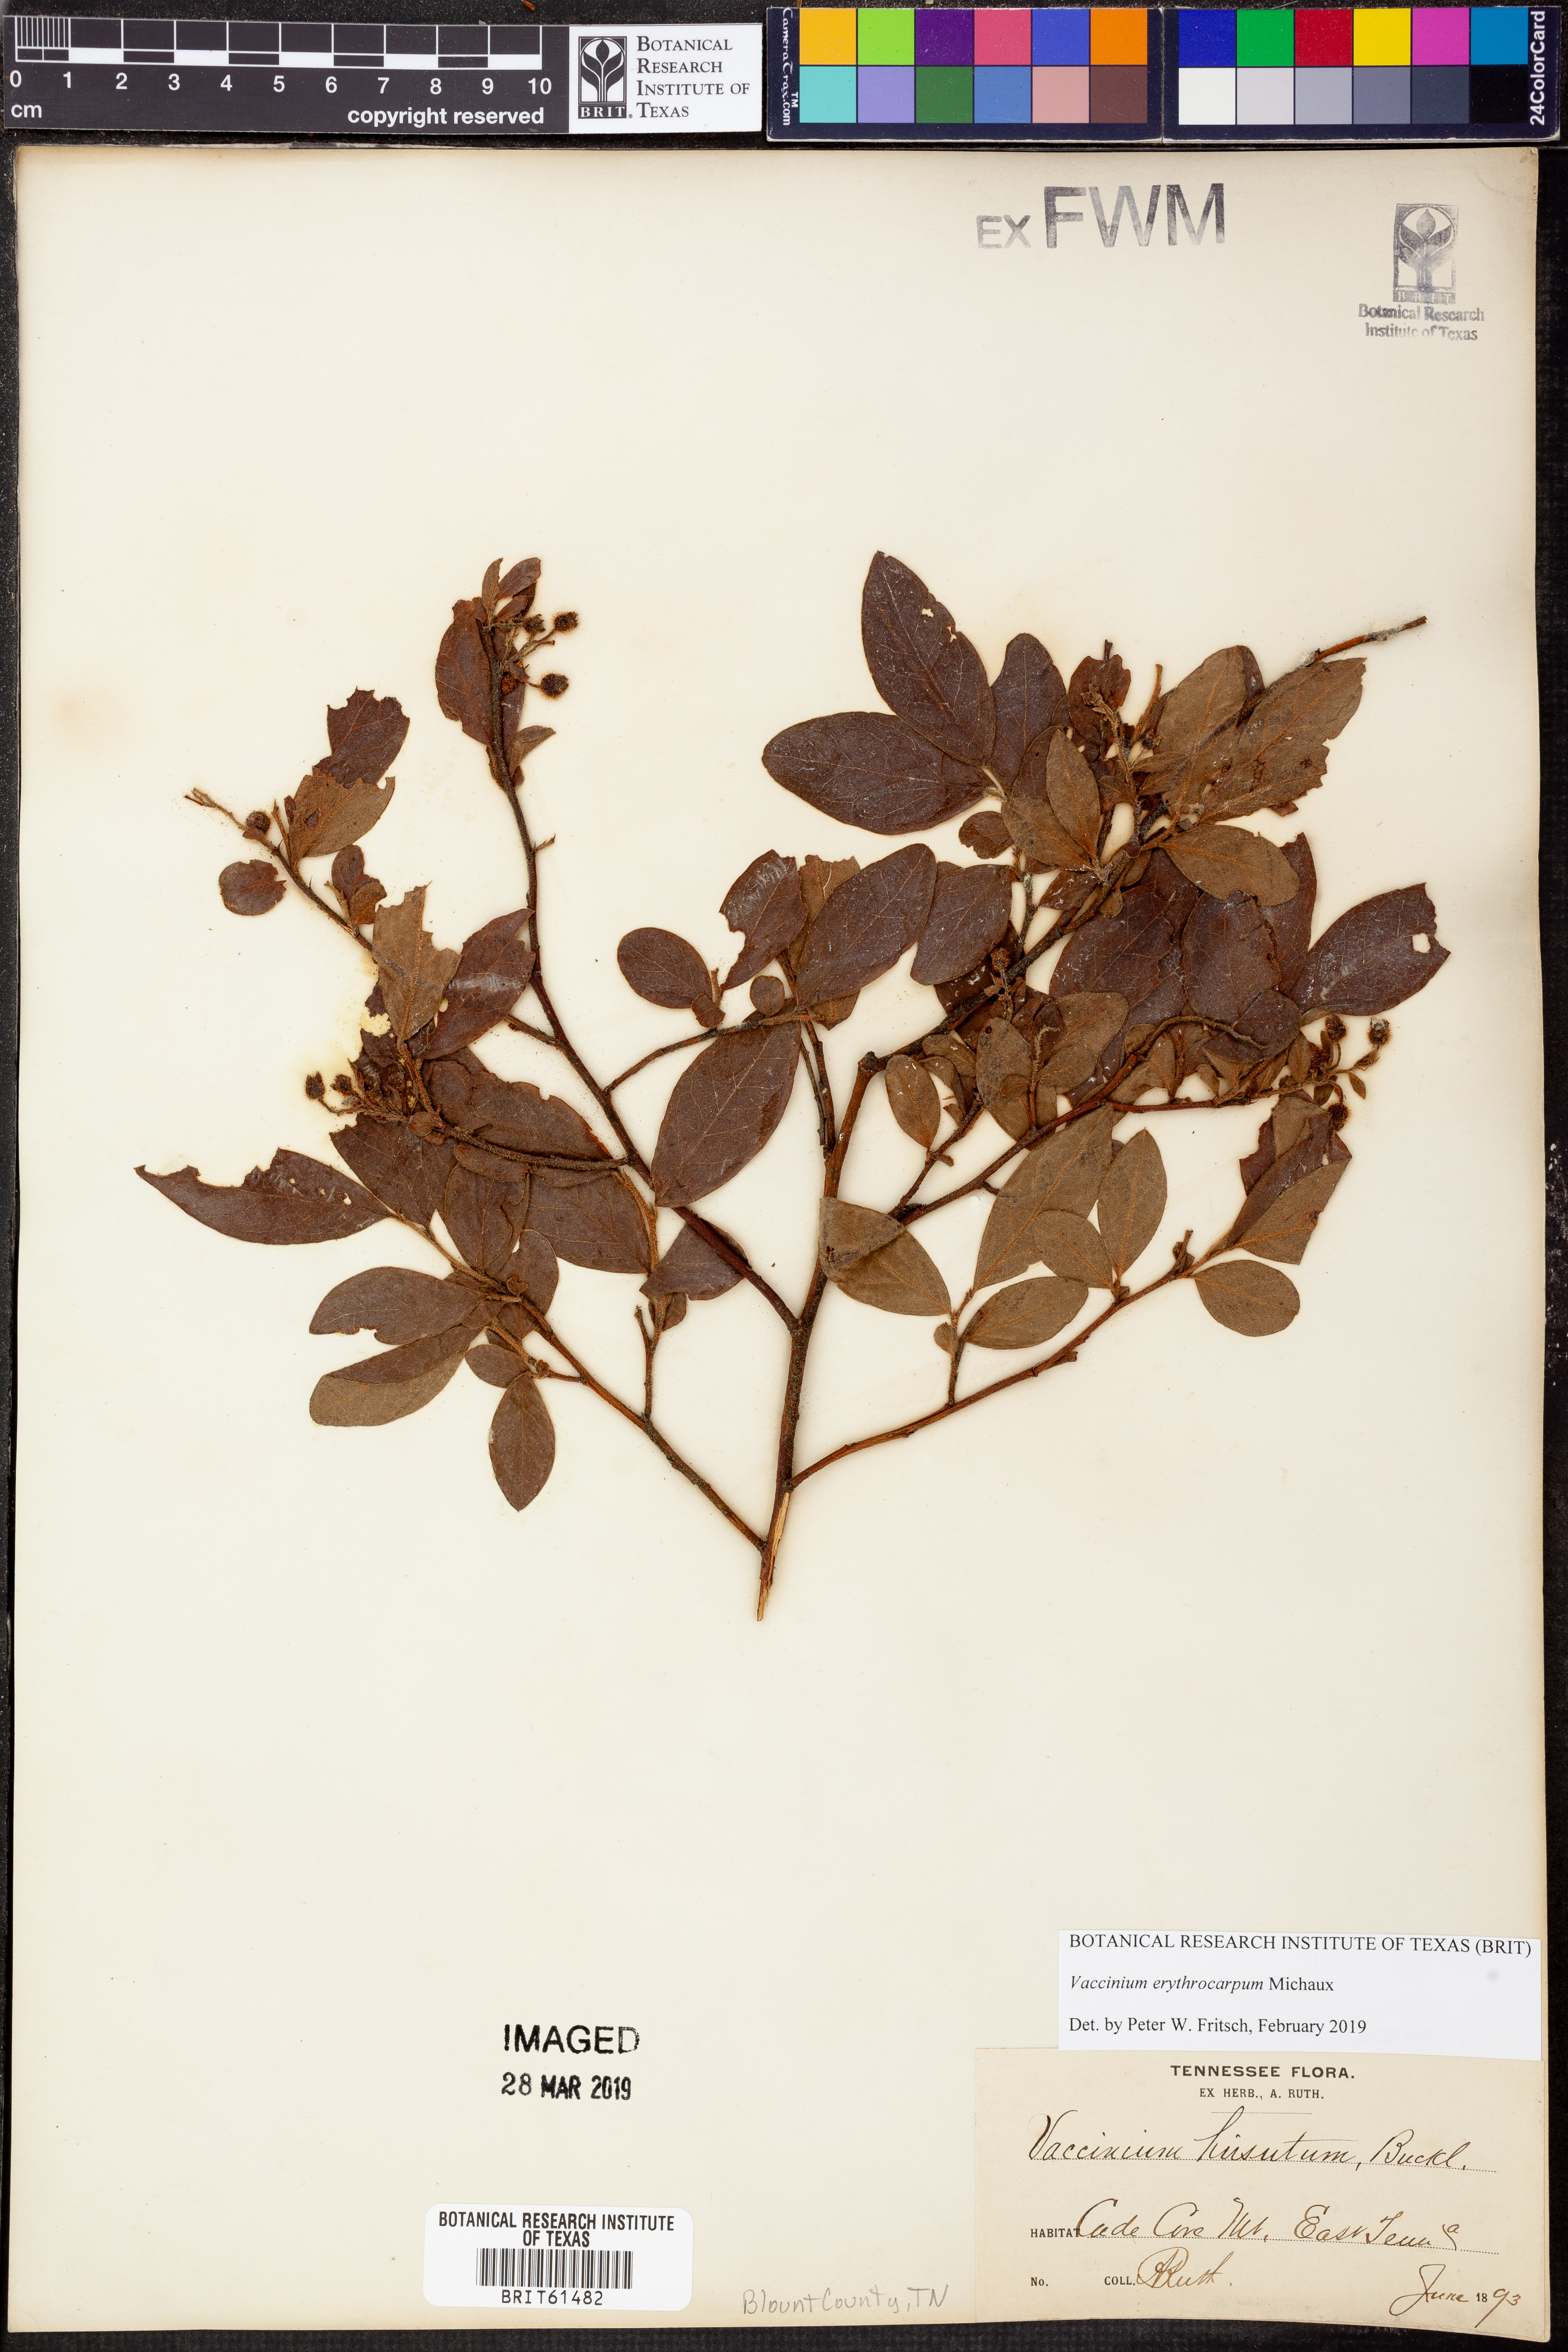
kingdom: Plantae
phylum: Tracheophyta
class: Magnoliopsida
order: Ericales
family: Ericaceae
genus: Vaccinium
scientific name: Vaccinium hirsutum
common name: Woolly-berry
